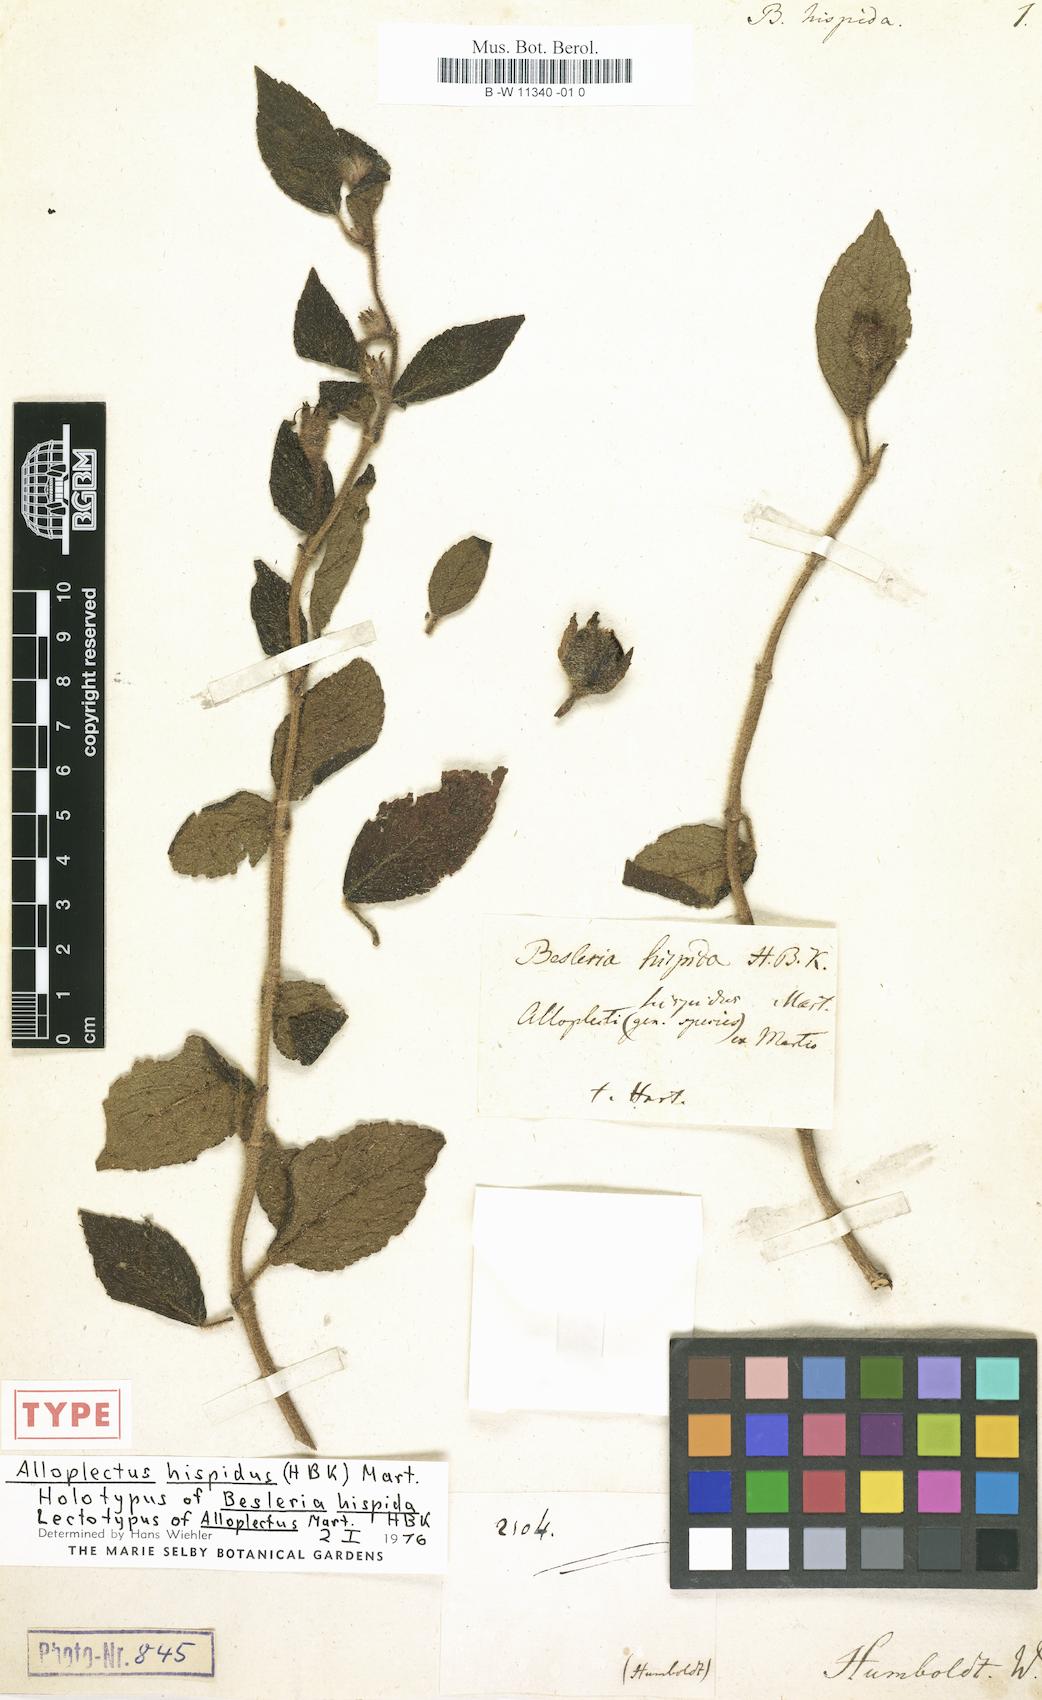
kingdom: Plantae
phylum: Tracheophyta
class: Magnoliopsida
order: Lamiales
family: Gesneriaceae
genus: Alloplectus
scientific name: Alloplectus hispidus
